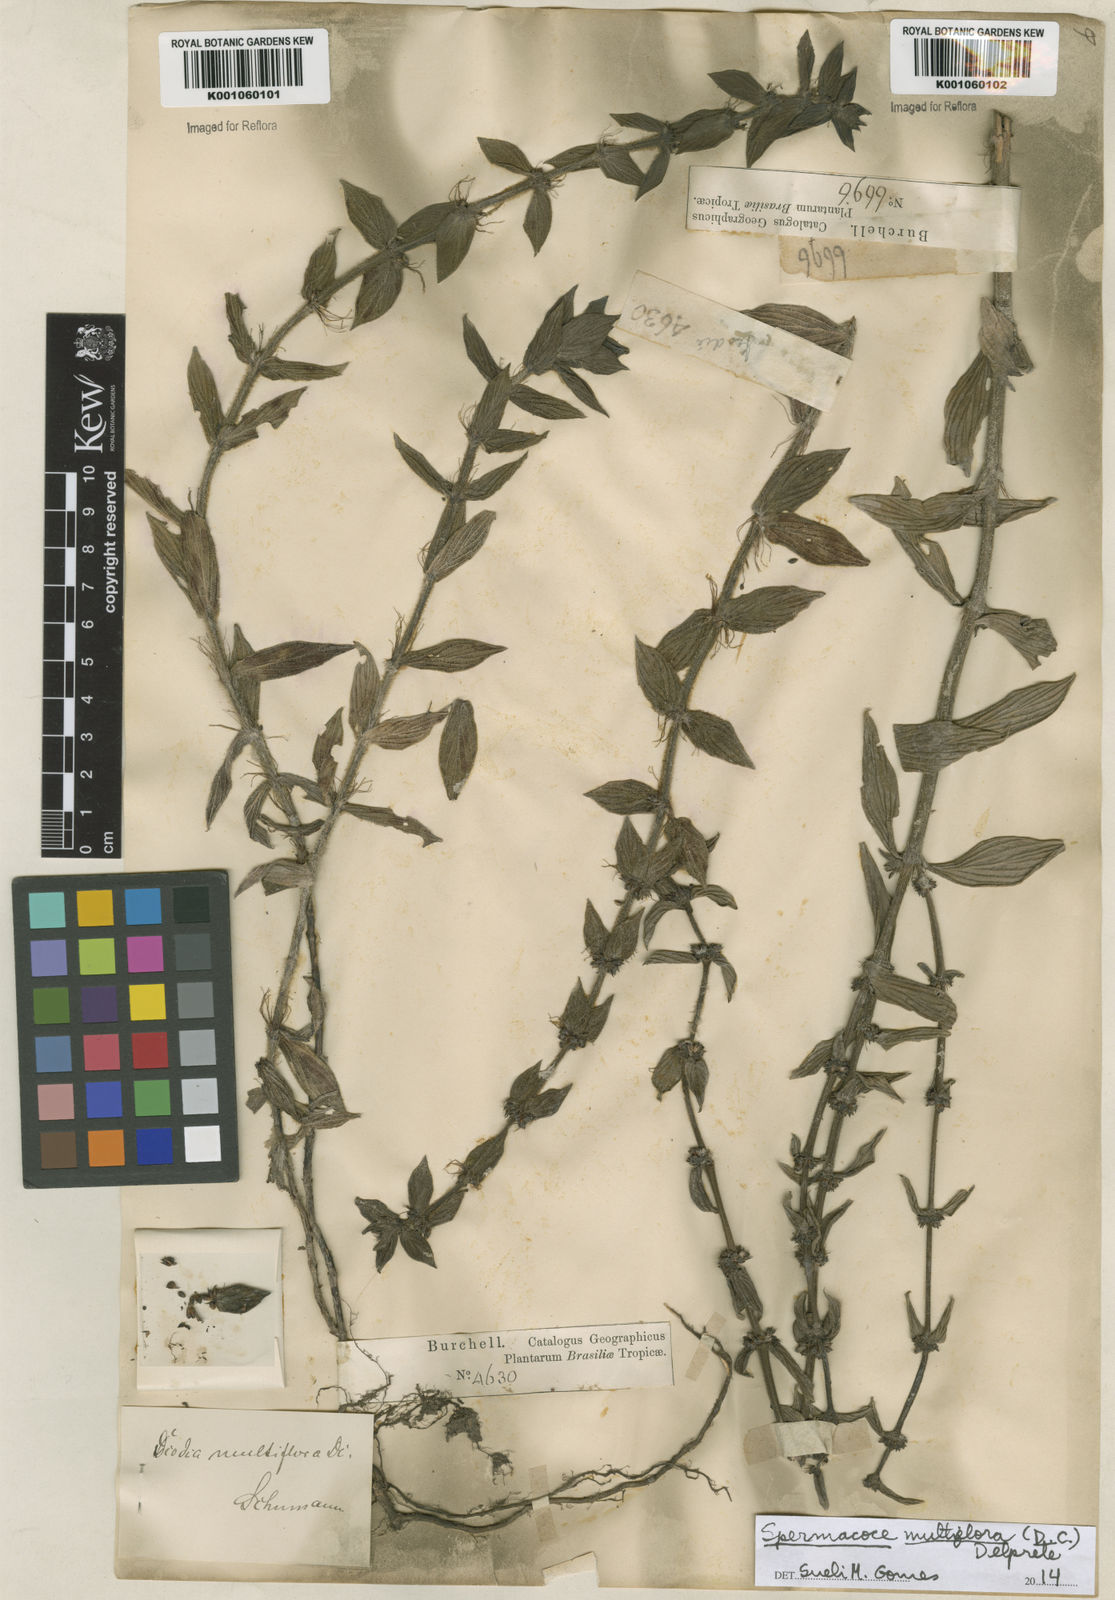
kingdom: Plantae
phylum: Tracheophyta
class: Magnoliopsida
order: Gentianales
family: Rubiaceae
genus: Spermacoce
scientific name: Spermacoce multiflora
